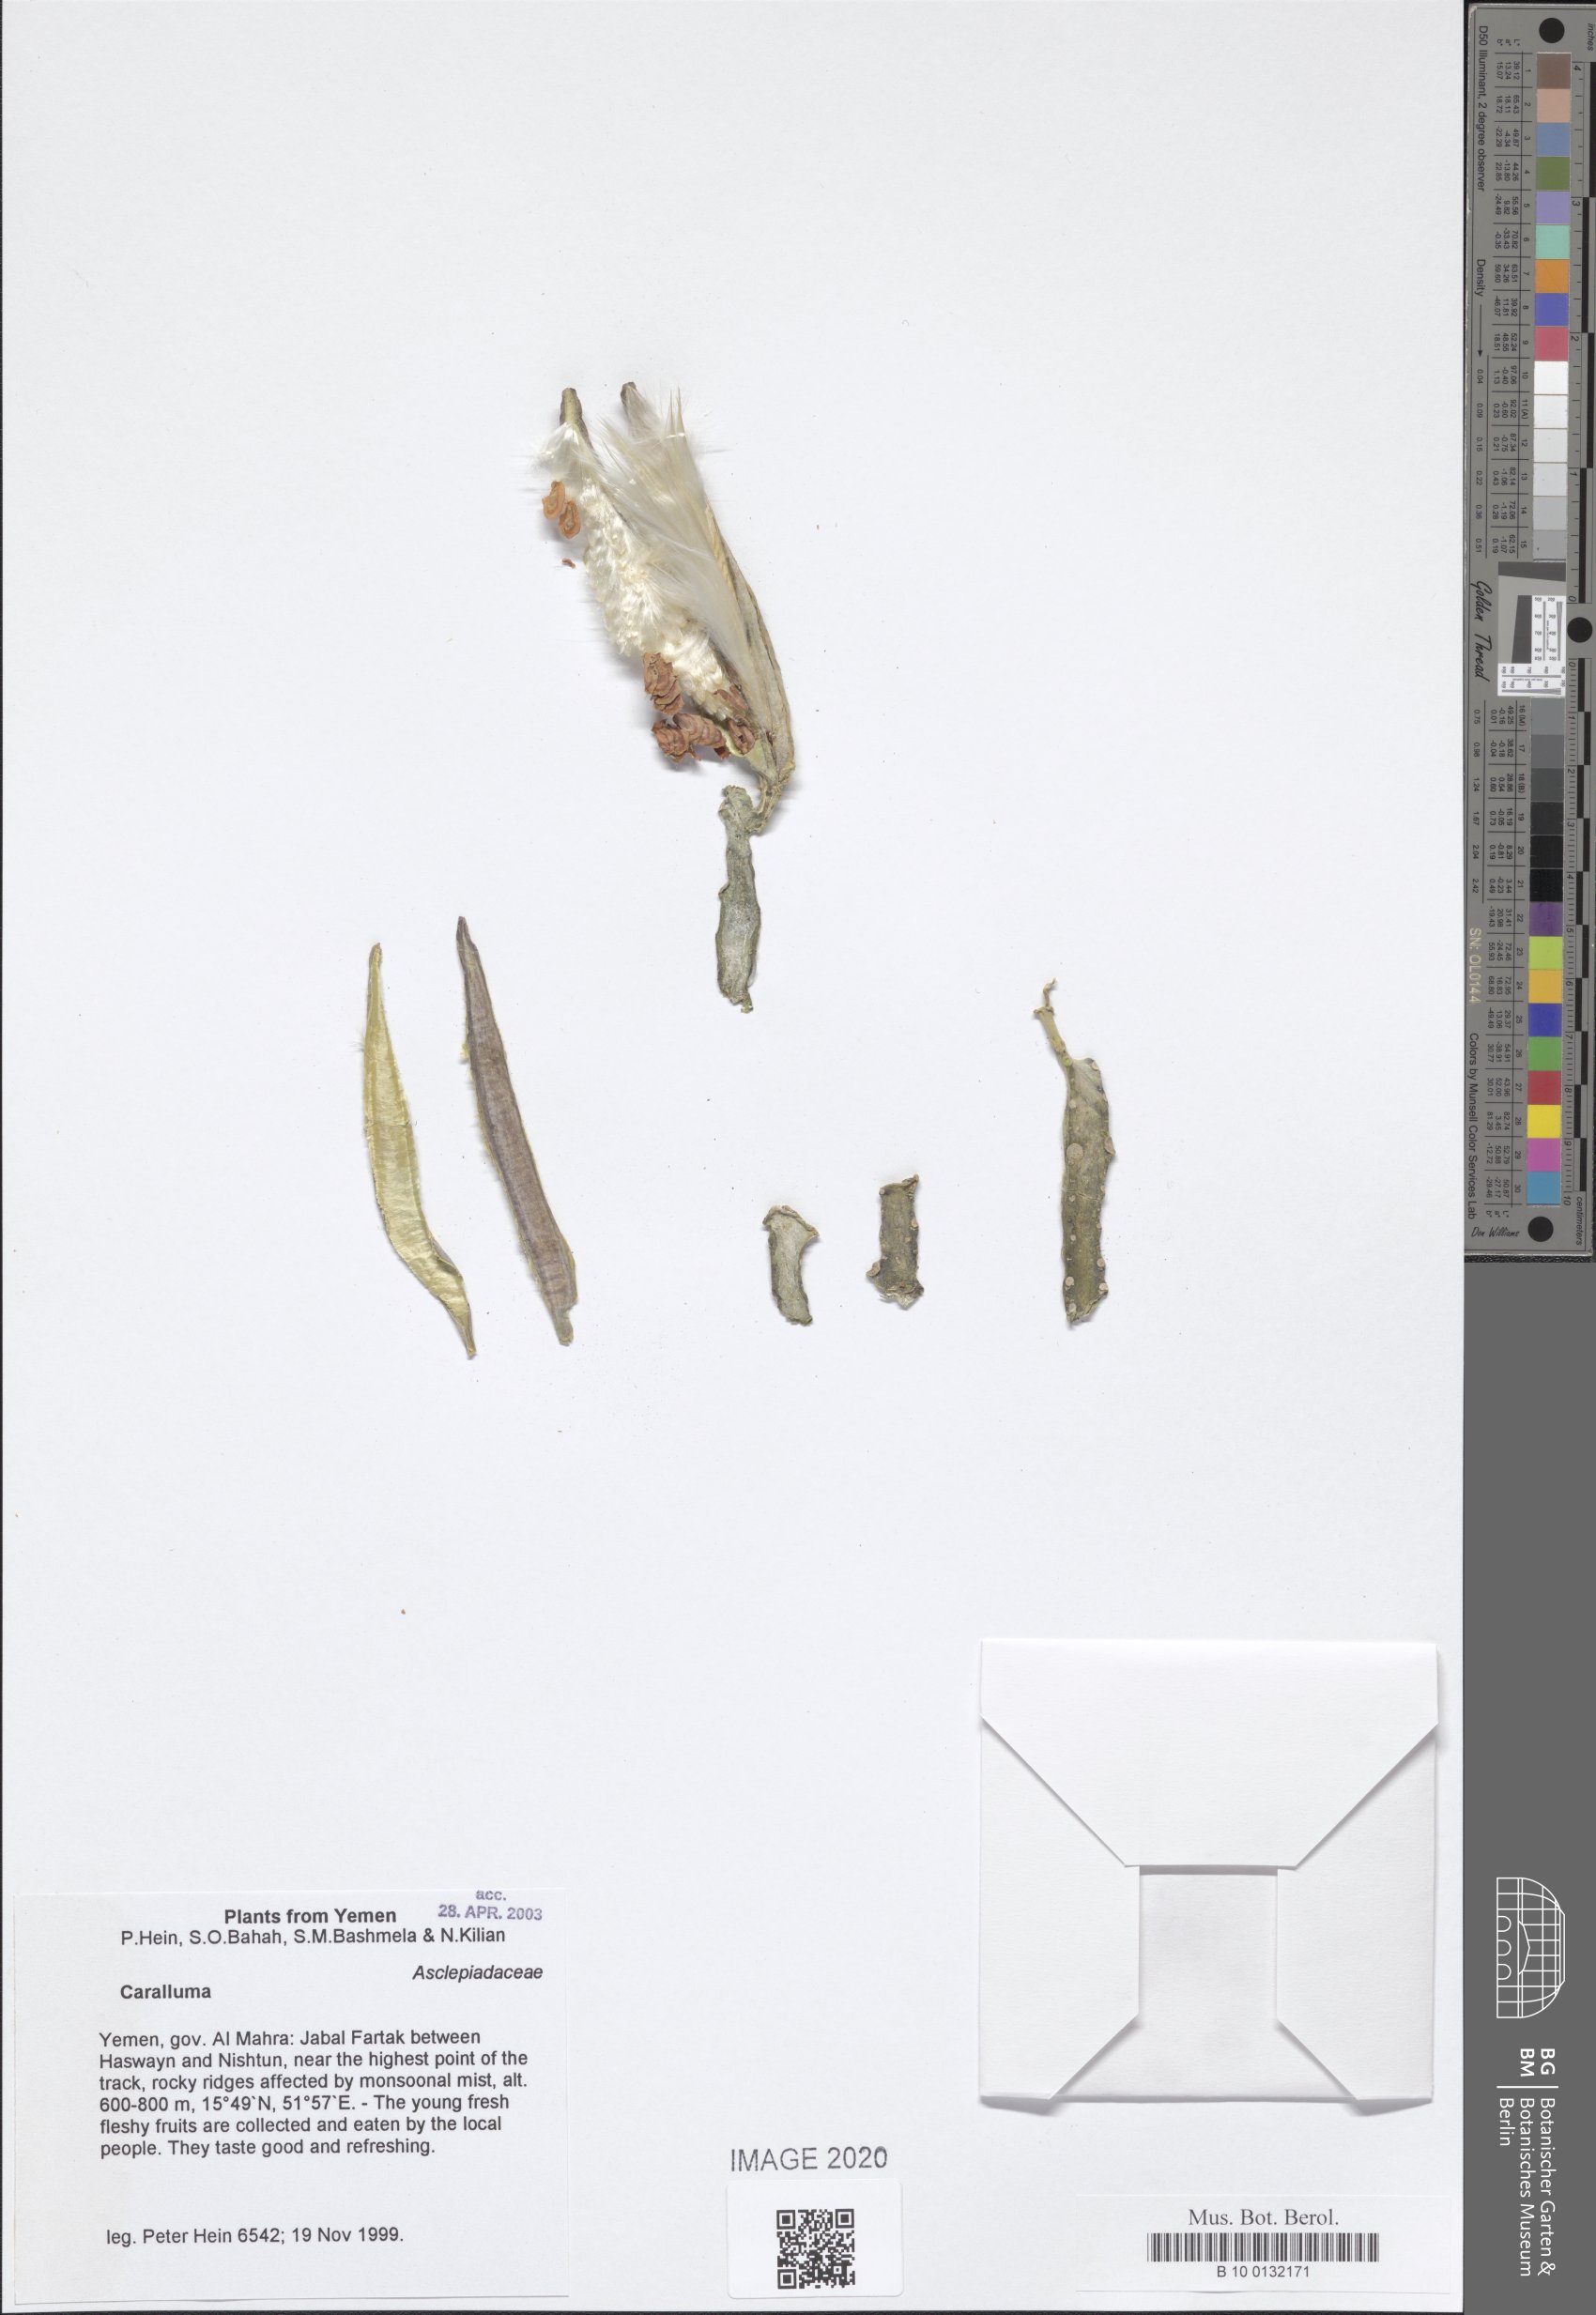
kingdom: Plantae
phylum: Tracheophyta
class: Magnoliopsida
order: Gentianales
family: Apocynaceae
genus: Ceropegia
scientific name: Ceropegia quadrangula
